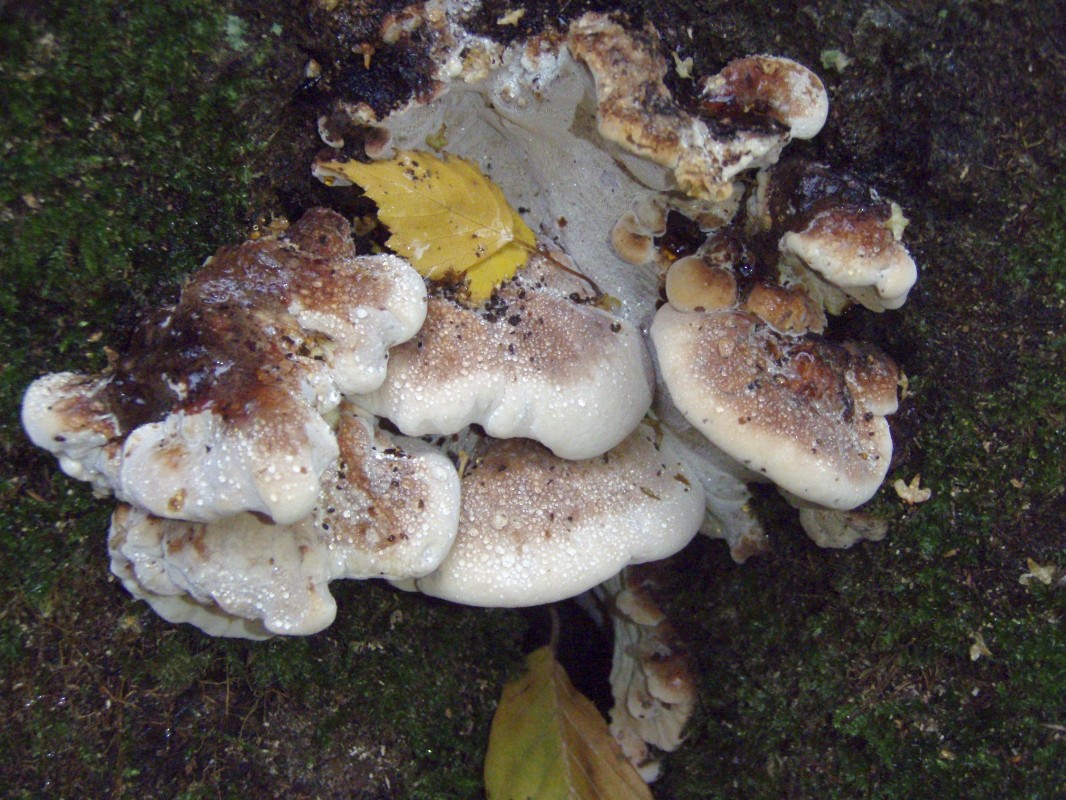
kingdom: Fungi
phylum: Basidiomycota
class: Agaricomycetes
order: Polyporales
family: Ischnodermataceae
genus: Ischnoderma
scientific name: Ischnoderma resinosum
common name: løv-tjæreporesvamp
